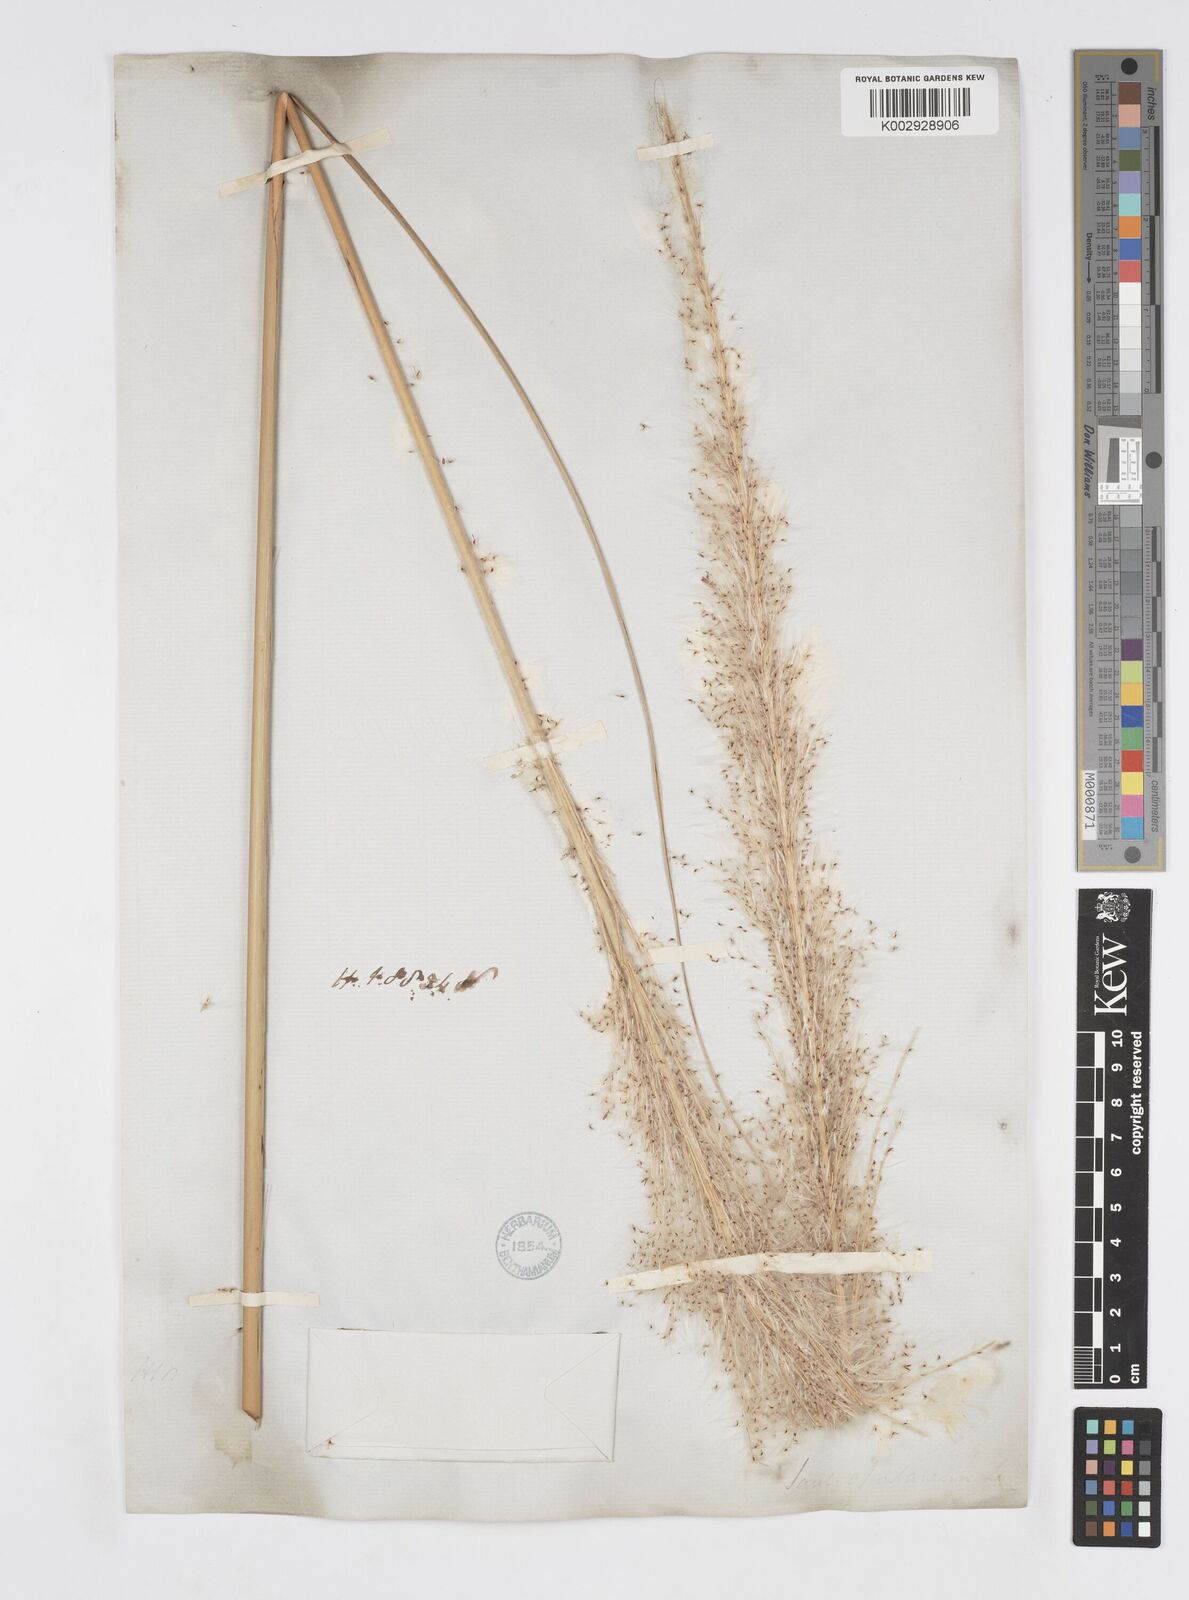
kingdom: Plantae
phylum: Tracheophyta
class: Liliopsida
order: Poales
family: Poaceae
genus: Saccharum
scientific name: Saccharum spontaneum
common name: Wild sugarcane
